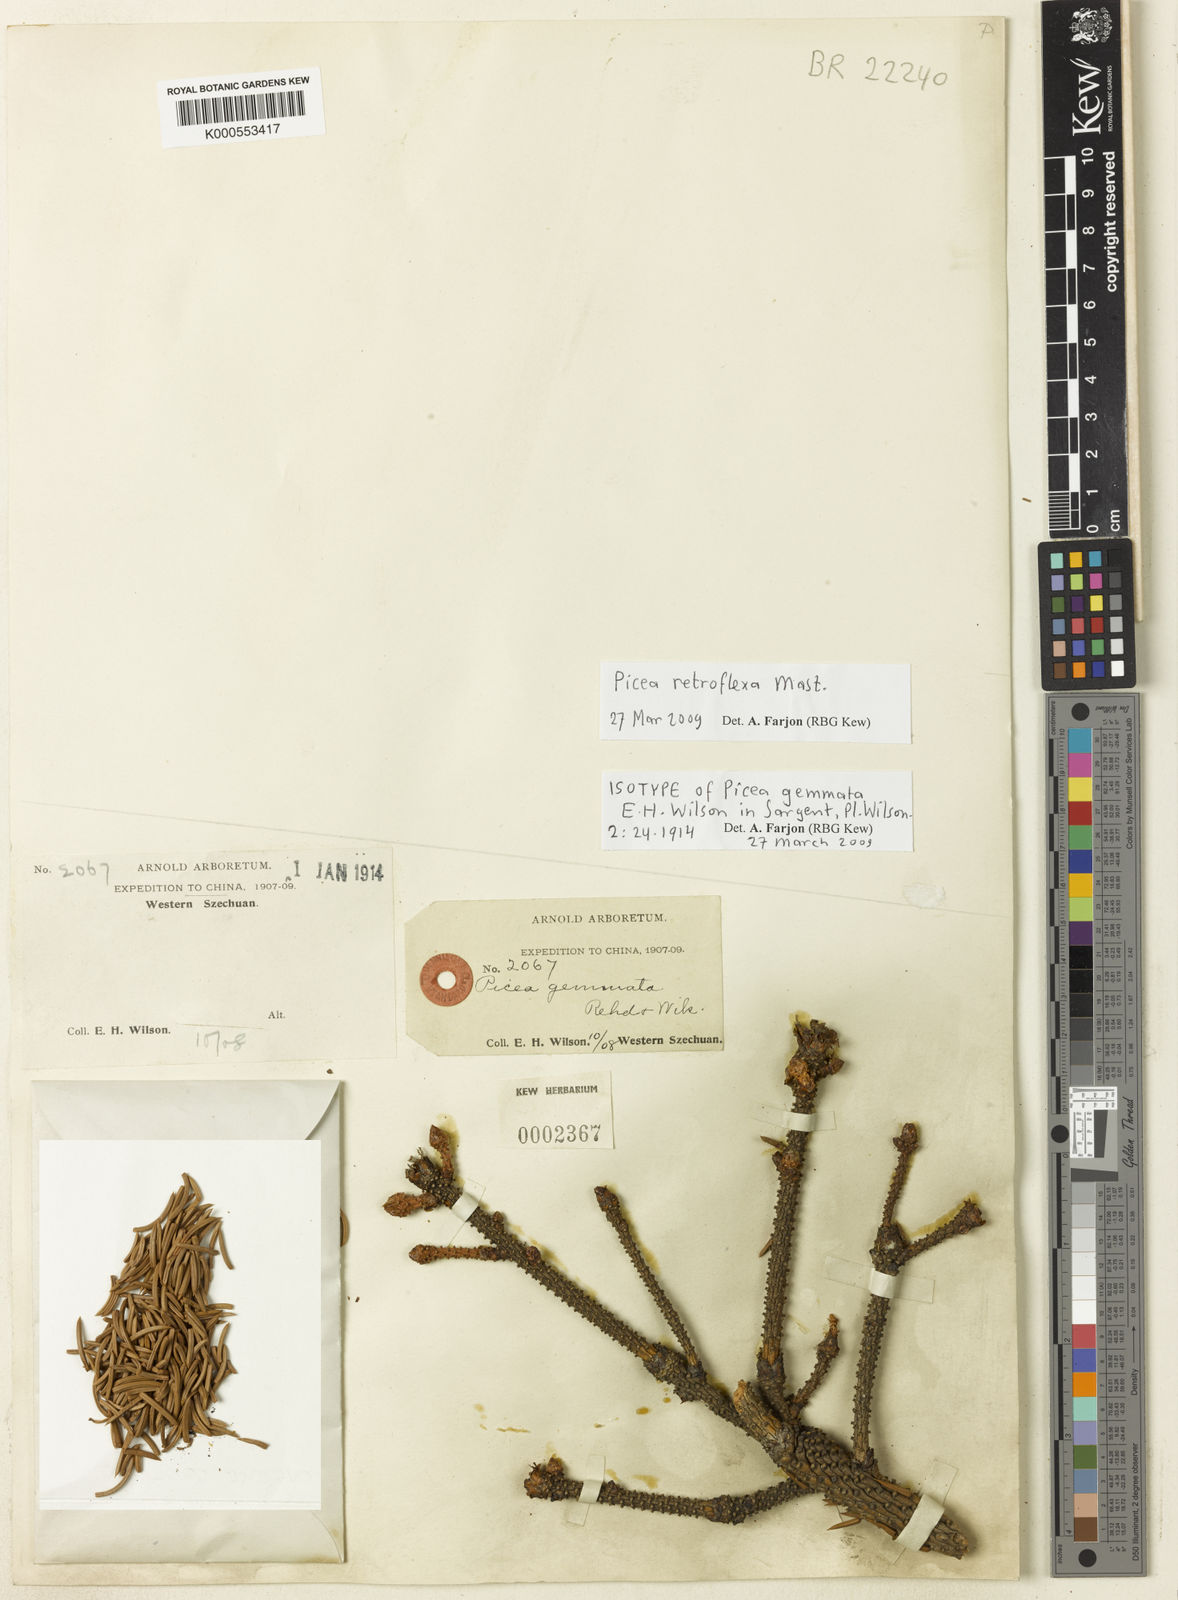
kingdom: Plantae
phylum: Tracheophyta
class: Pinopsida
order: Pinales
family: Pinaceae
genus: Picea
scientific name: Picea retroflexa
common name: Tapao shan spruce
